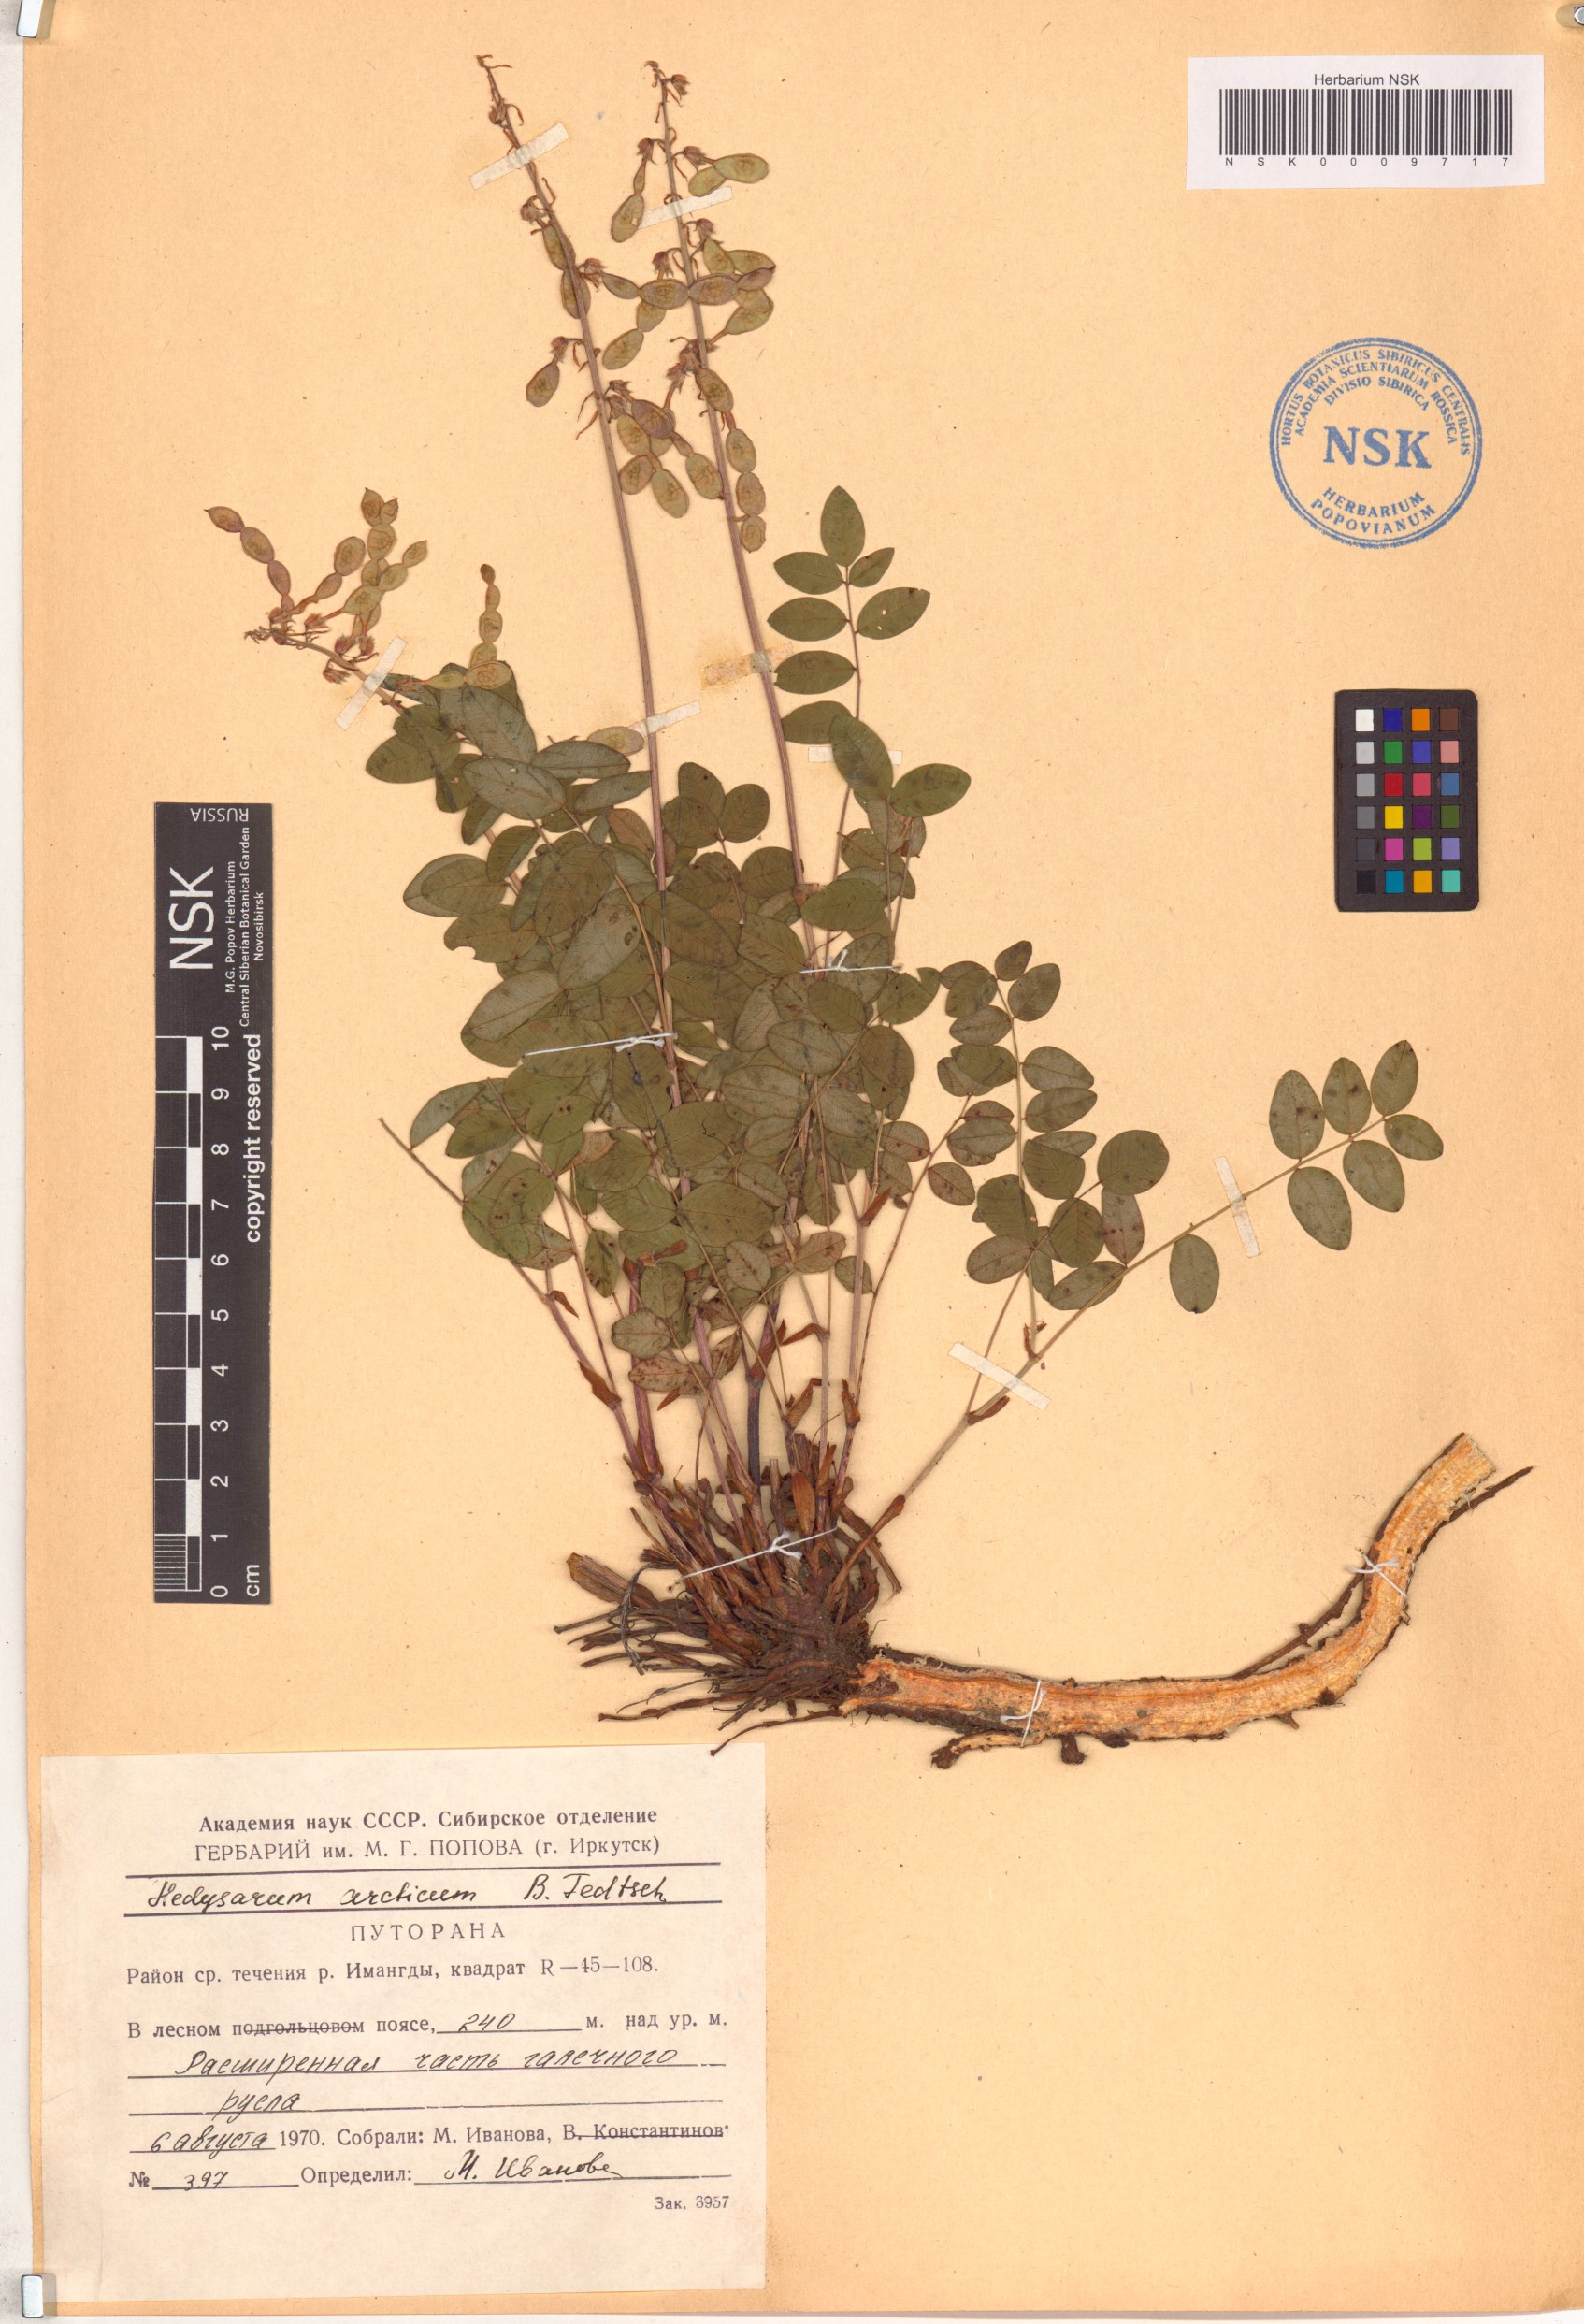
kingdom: Plantae
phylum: Tracheophyta
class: Magnoliopsida
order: Fabales
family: Fabaceae
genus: Hedysarum
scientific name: Hedysarum hedysaroides
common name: Alpine french-honeysuckle
